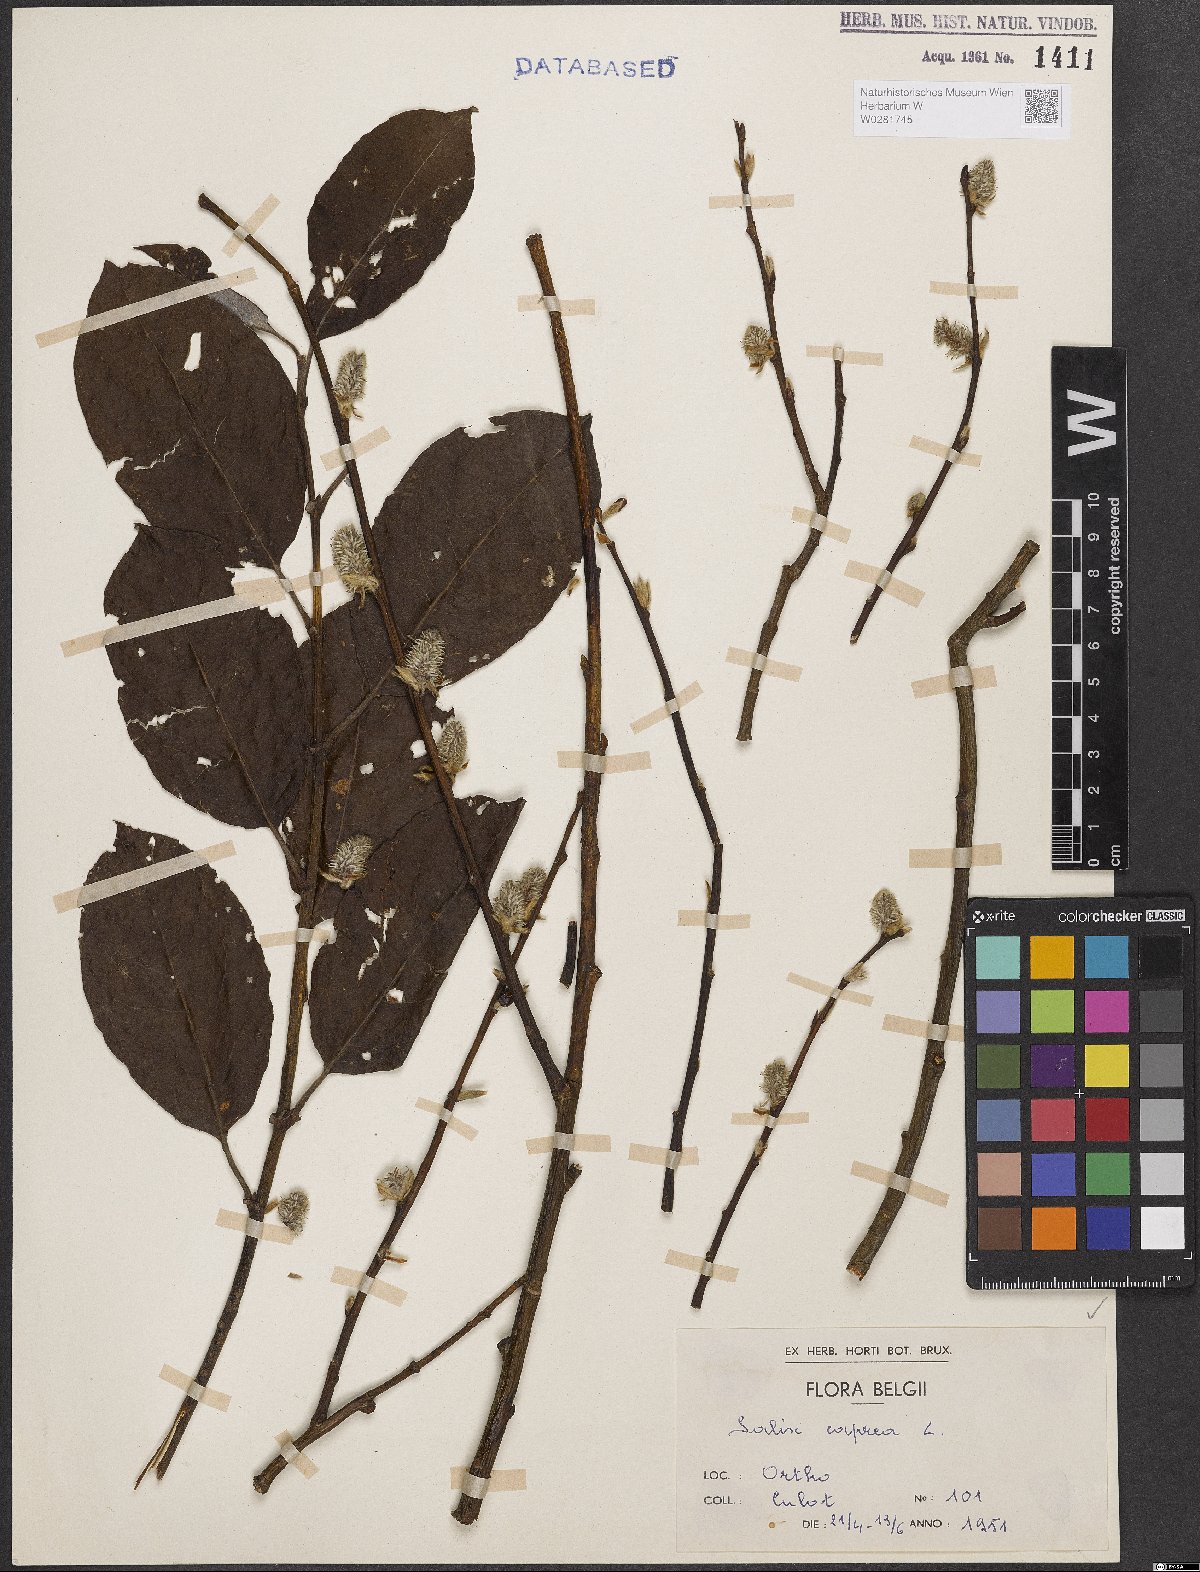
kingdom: Plantae
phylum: Tracheophyta
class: Magnoliopsida
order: Malpighiales
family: Salicaceae
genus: Salix
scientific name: Salix caprea
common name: Goat willow
